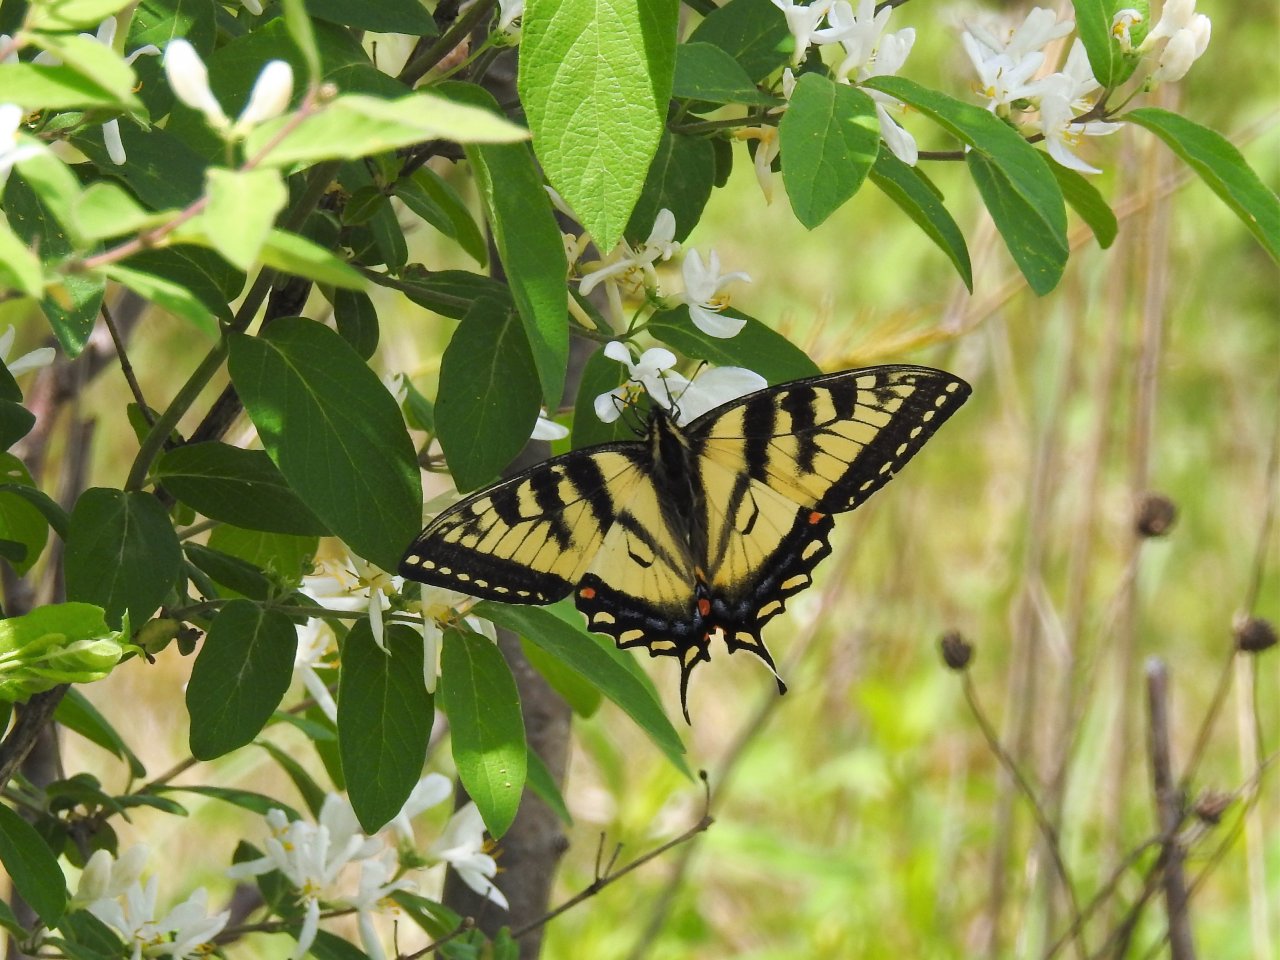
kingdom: Animalia
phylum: Arthropoda
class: Insecta
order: Lepidoptera
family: Papilionidae
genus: Pterourus
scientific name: Pterourus canadensis
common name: Canadian Tiger Swallowtail
